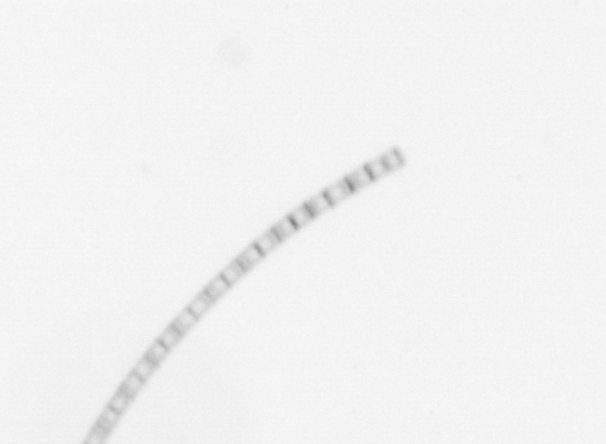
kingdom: Chromista
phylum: Ochrophyta
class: Bacillariophyceae
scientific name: Bacillariophyceae
